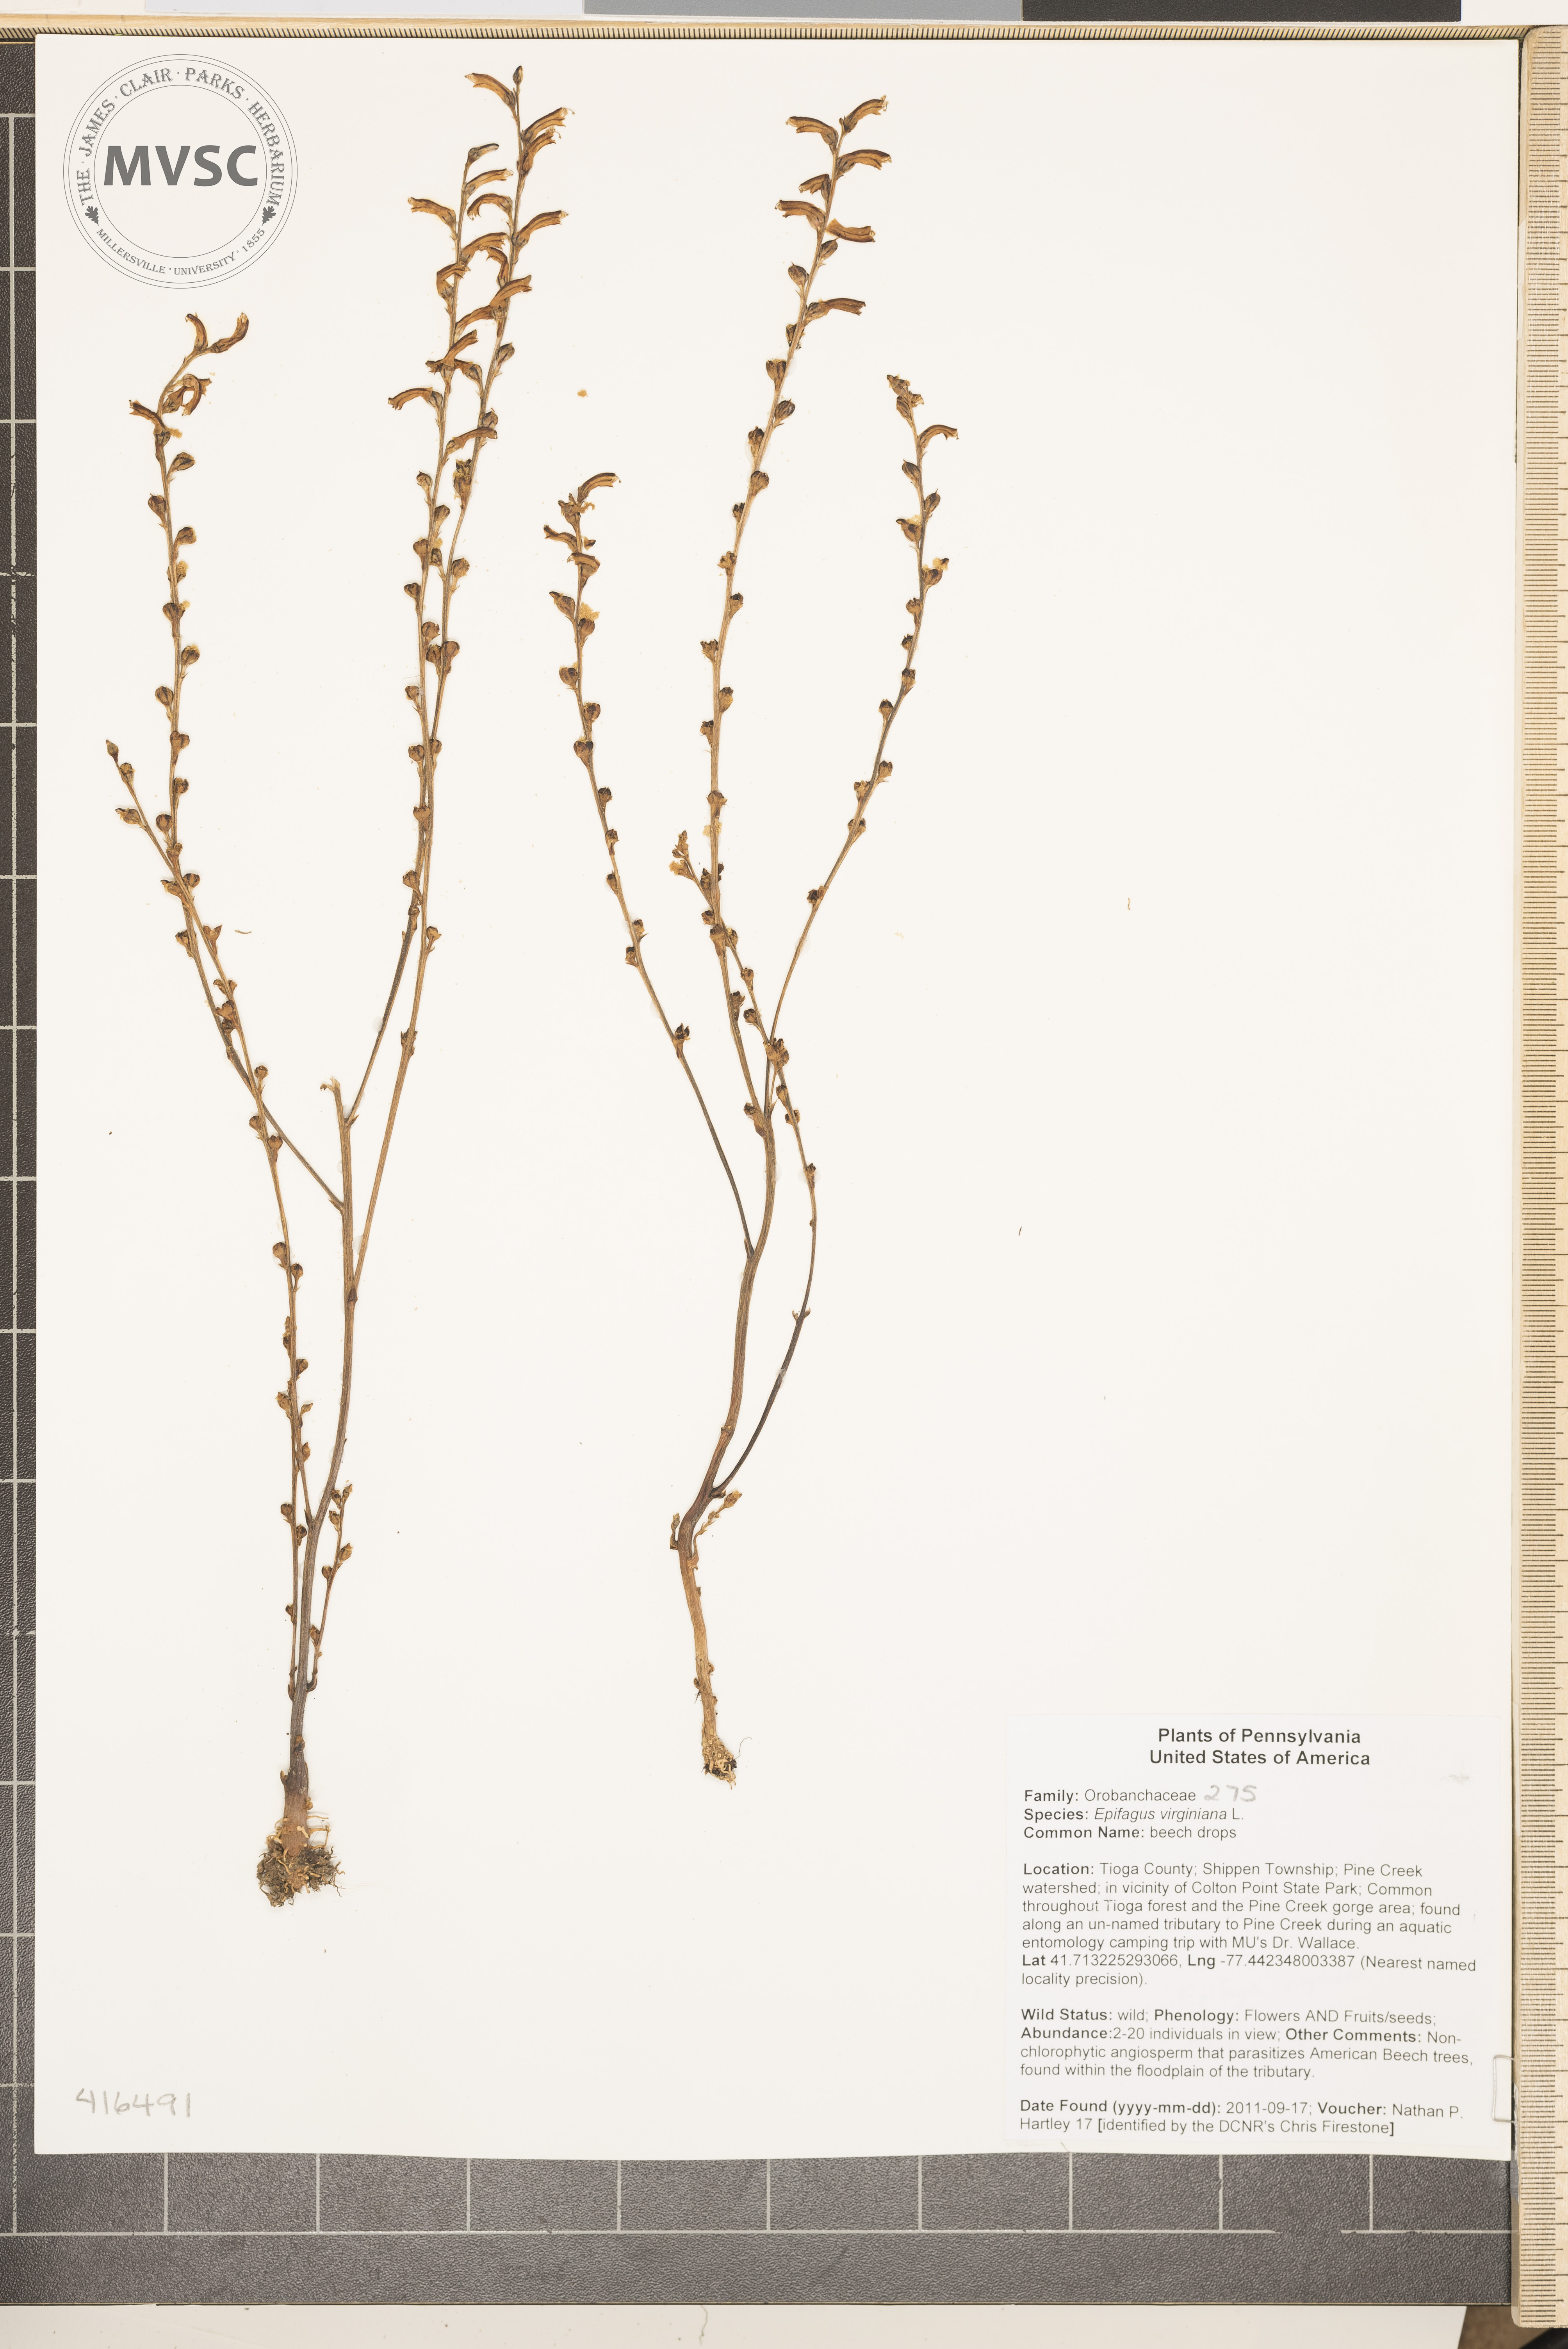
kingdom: Plantae
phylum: Tracheophyta
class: Magnoliopsida
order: Lamiales
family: Orobanchaceae
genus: Epifagus
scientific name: Epifagus virginiana
